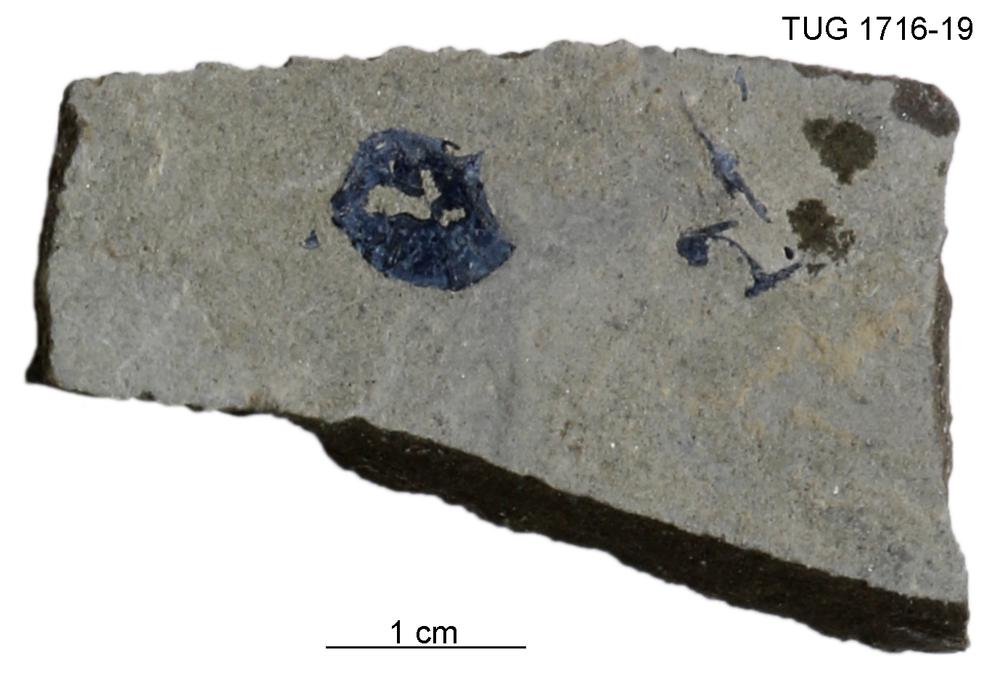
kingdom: Animalia
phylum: Chordata
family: Coccosteidae
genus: Millerosteus
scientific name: Millerosteus minor
